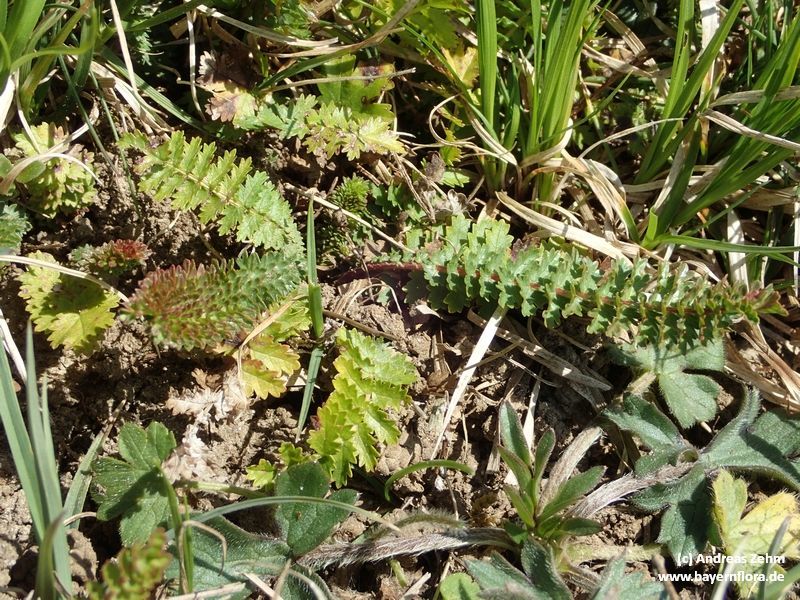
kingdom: Plantae
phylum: Tracheophyta
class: Magnoliopsida
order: Rosales
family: Rosaceae
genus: Filipendula
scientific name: Filipendula vulgaris
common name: Dropwort
